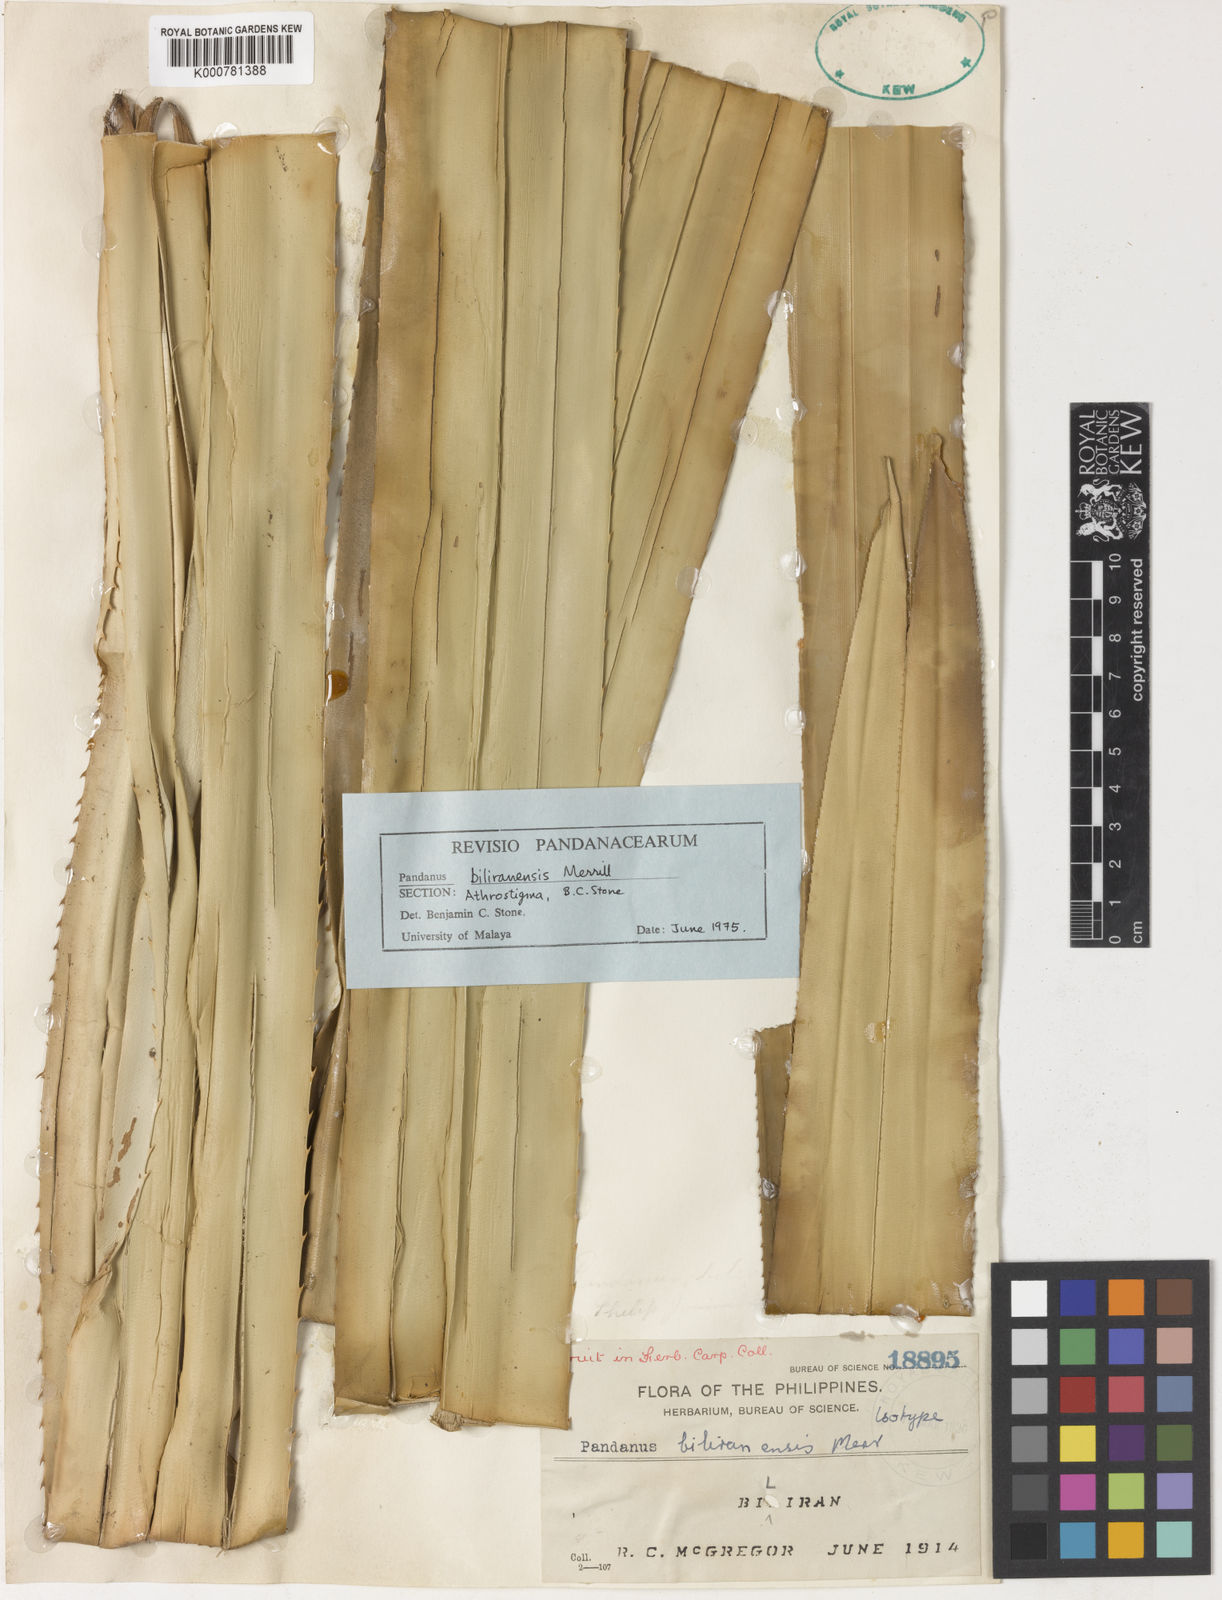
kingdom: Plantae
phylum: Tracheophyta
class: Liliopsida
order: Pandanales
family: Pandanaceae
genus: Pandanus
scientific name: Pandanus biliranensis
